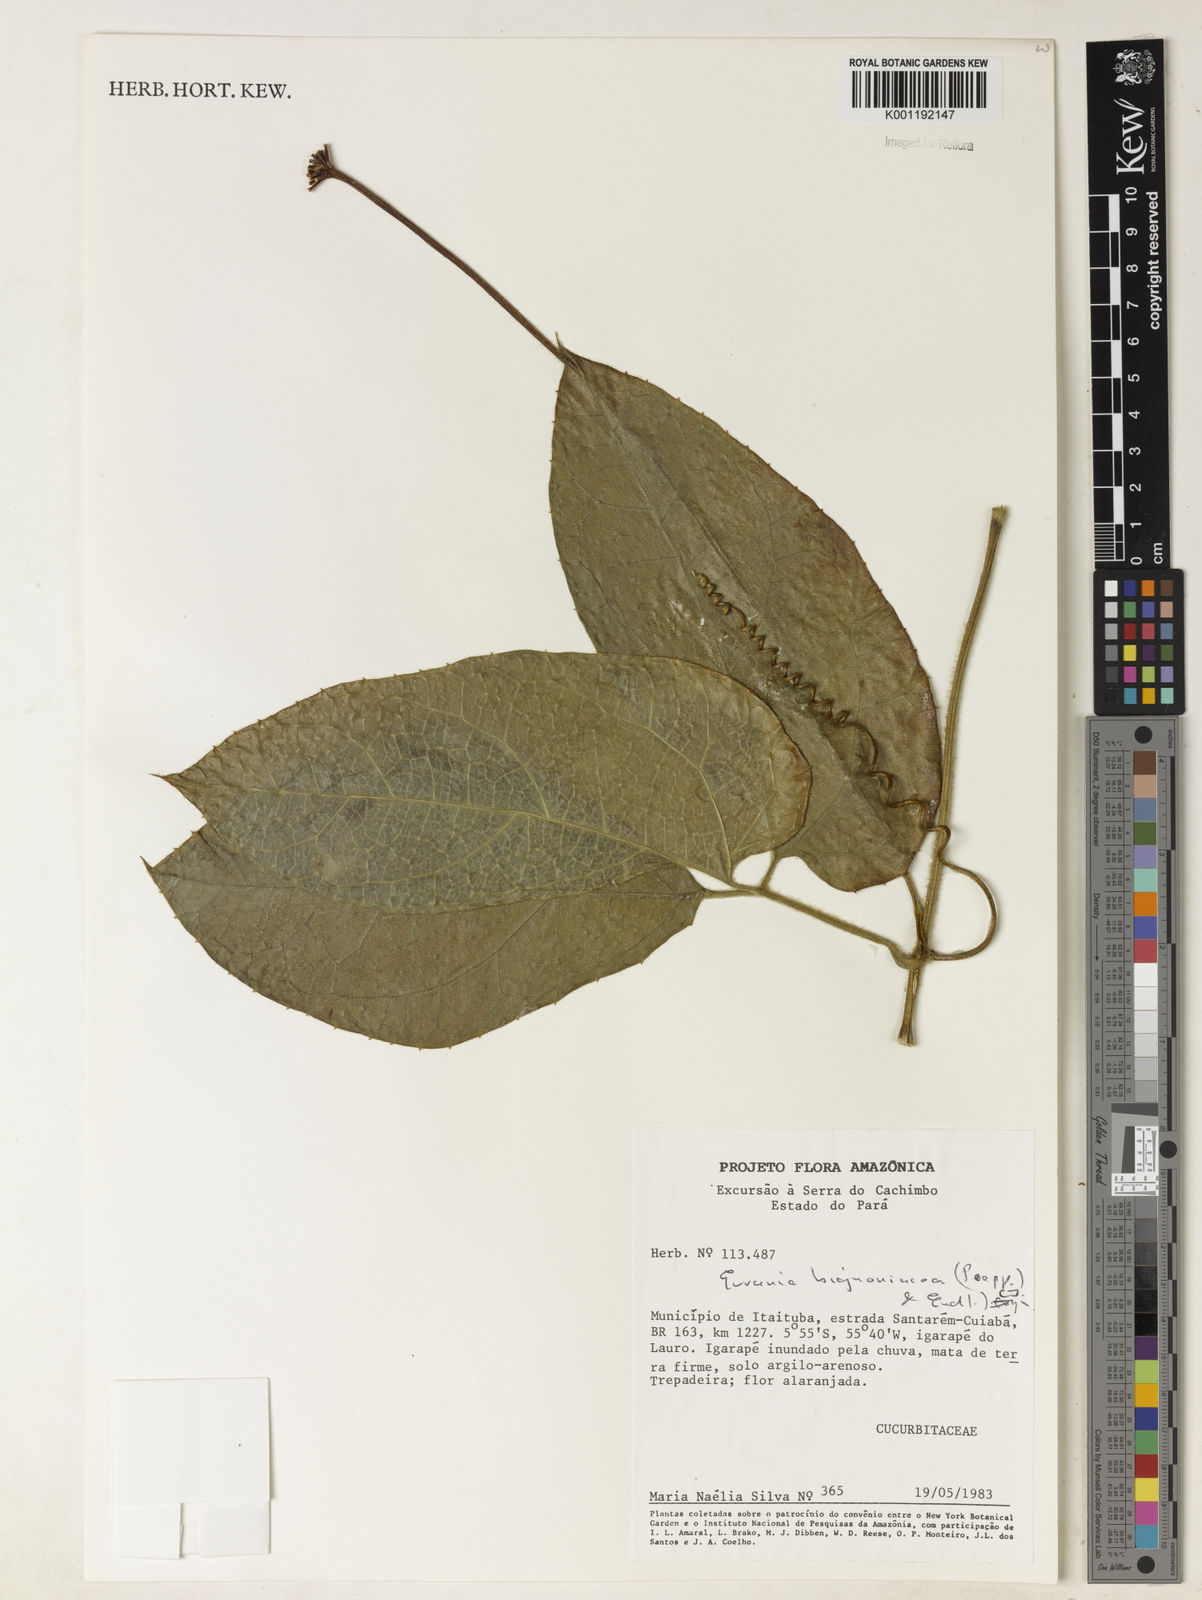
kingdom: Plantae
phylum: Tracheophyta
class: Magnoliopsida
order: Cucurbitales
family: Cucurbitaceae
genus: Gurania
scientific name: Gurania bignoniacea
